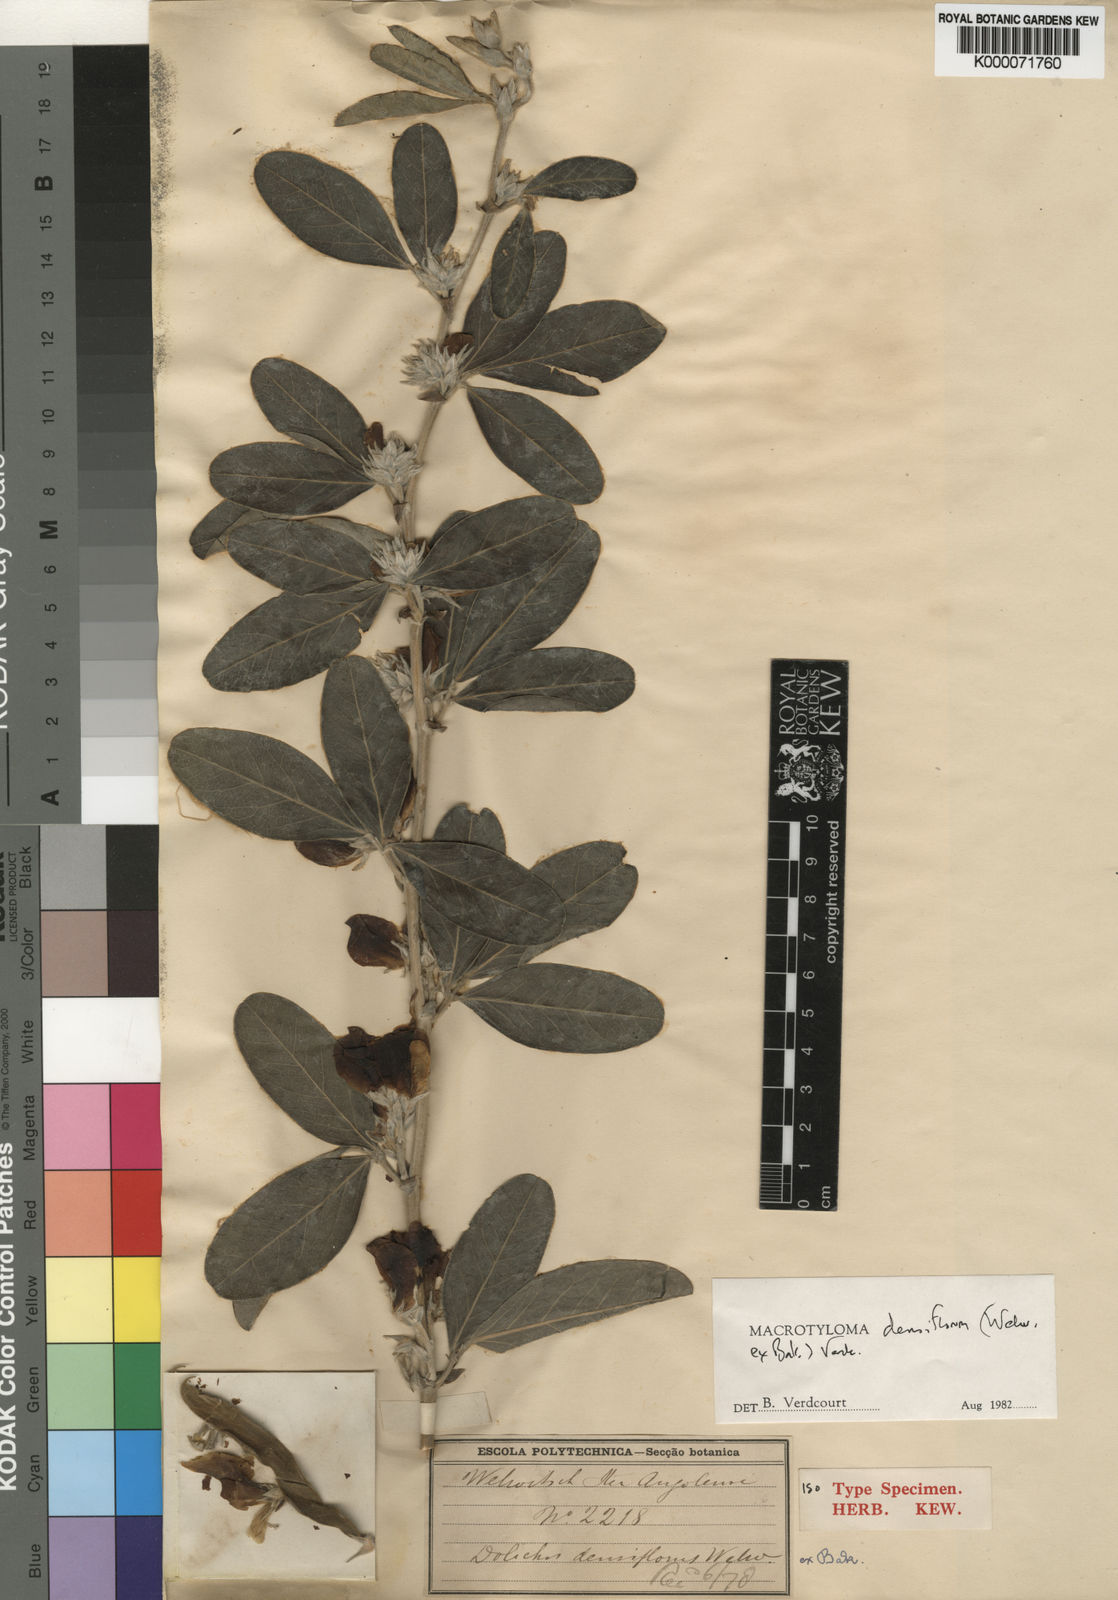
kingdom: Plantae
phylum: Tracheophyta
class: Magnoliopsida
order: Fabales
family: Fabaceae
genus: Macrotyloma
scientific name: Macrotyloma densiflorum
